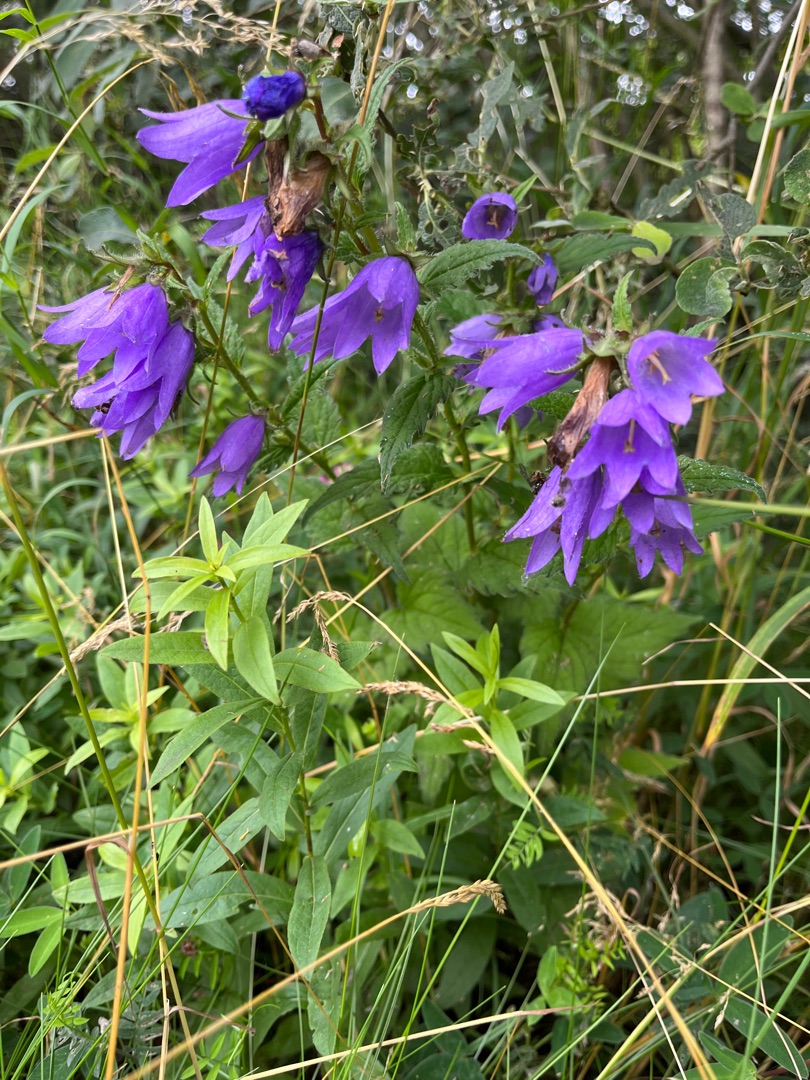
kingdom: Plantae
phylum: Tracheophyta
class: Magnoliopsida
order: Asterales
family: Campanulaceae
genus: Campanula
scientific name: Campanula trachelium
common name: Nælde-klokke
